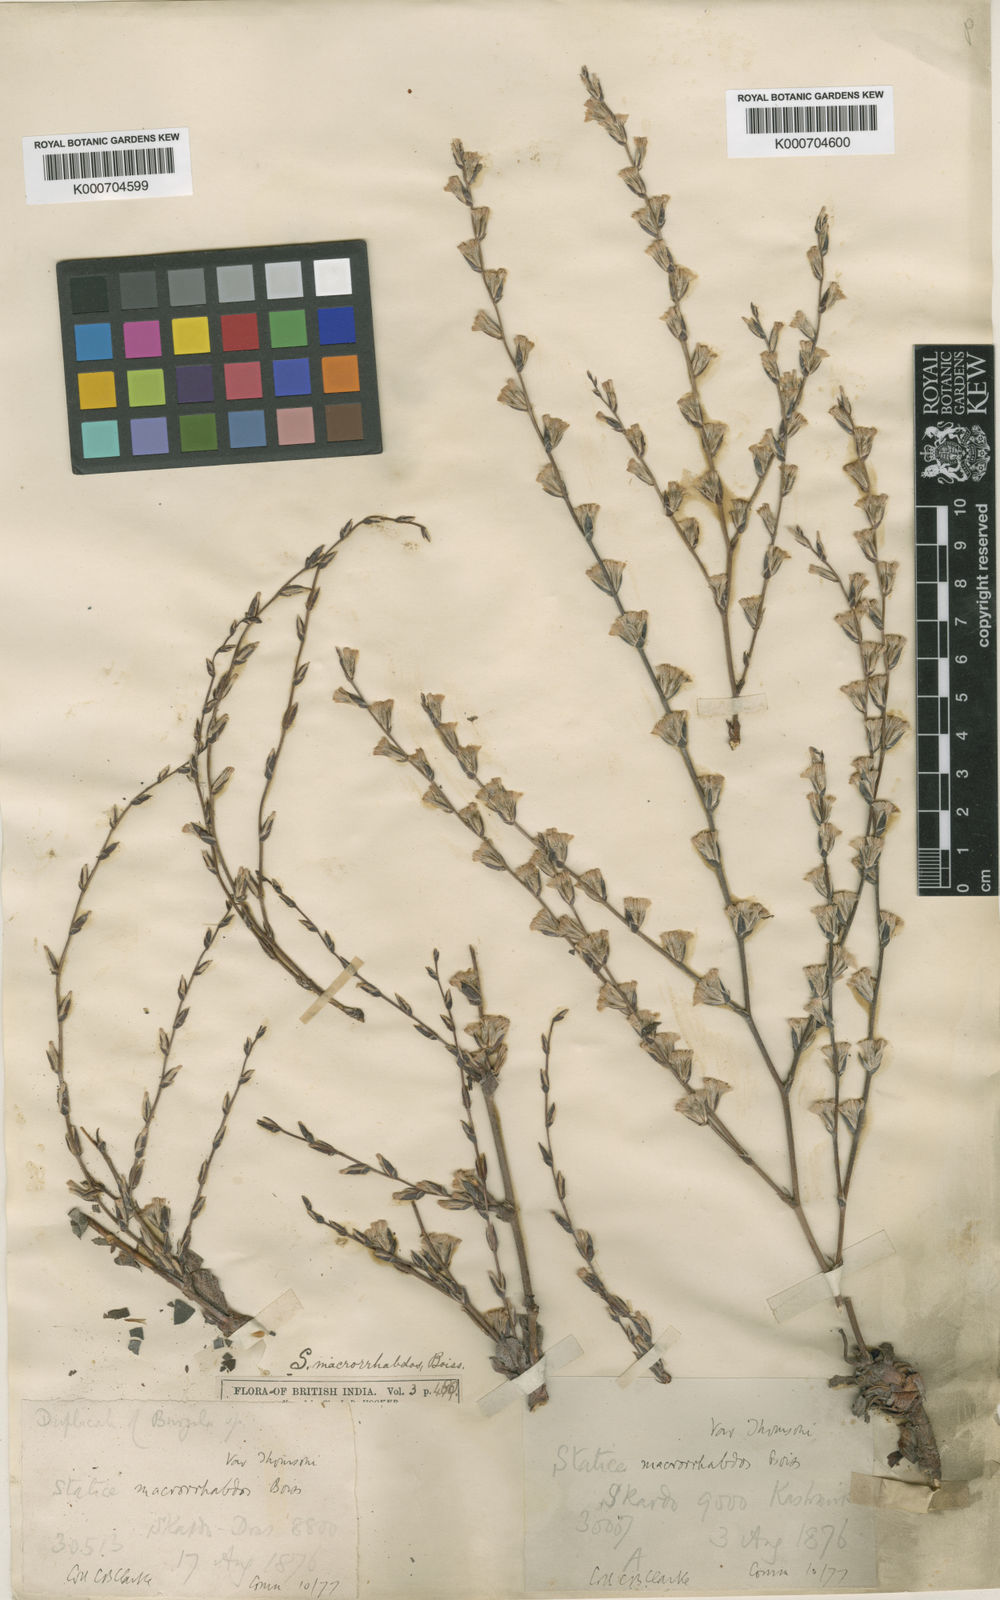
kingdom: Plantae
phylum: Tracheophyta
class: Magnoliopsida
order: Caryophyllales
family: Plumbaginaceae
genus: Dictyolimon
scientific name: Dictyolimon macrorrhabdos
